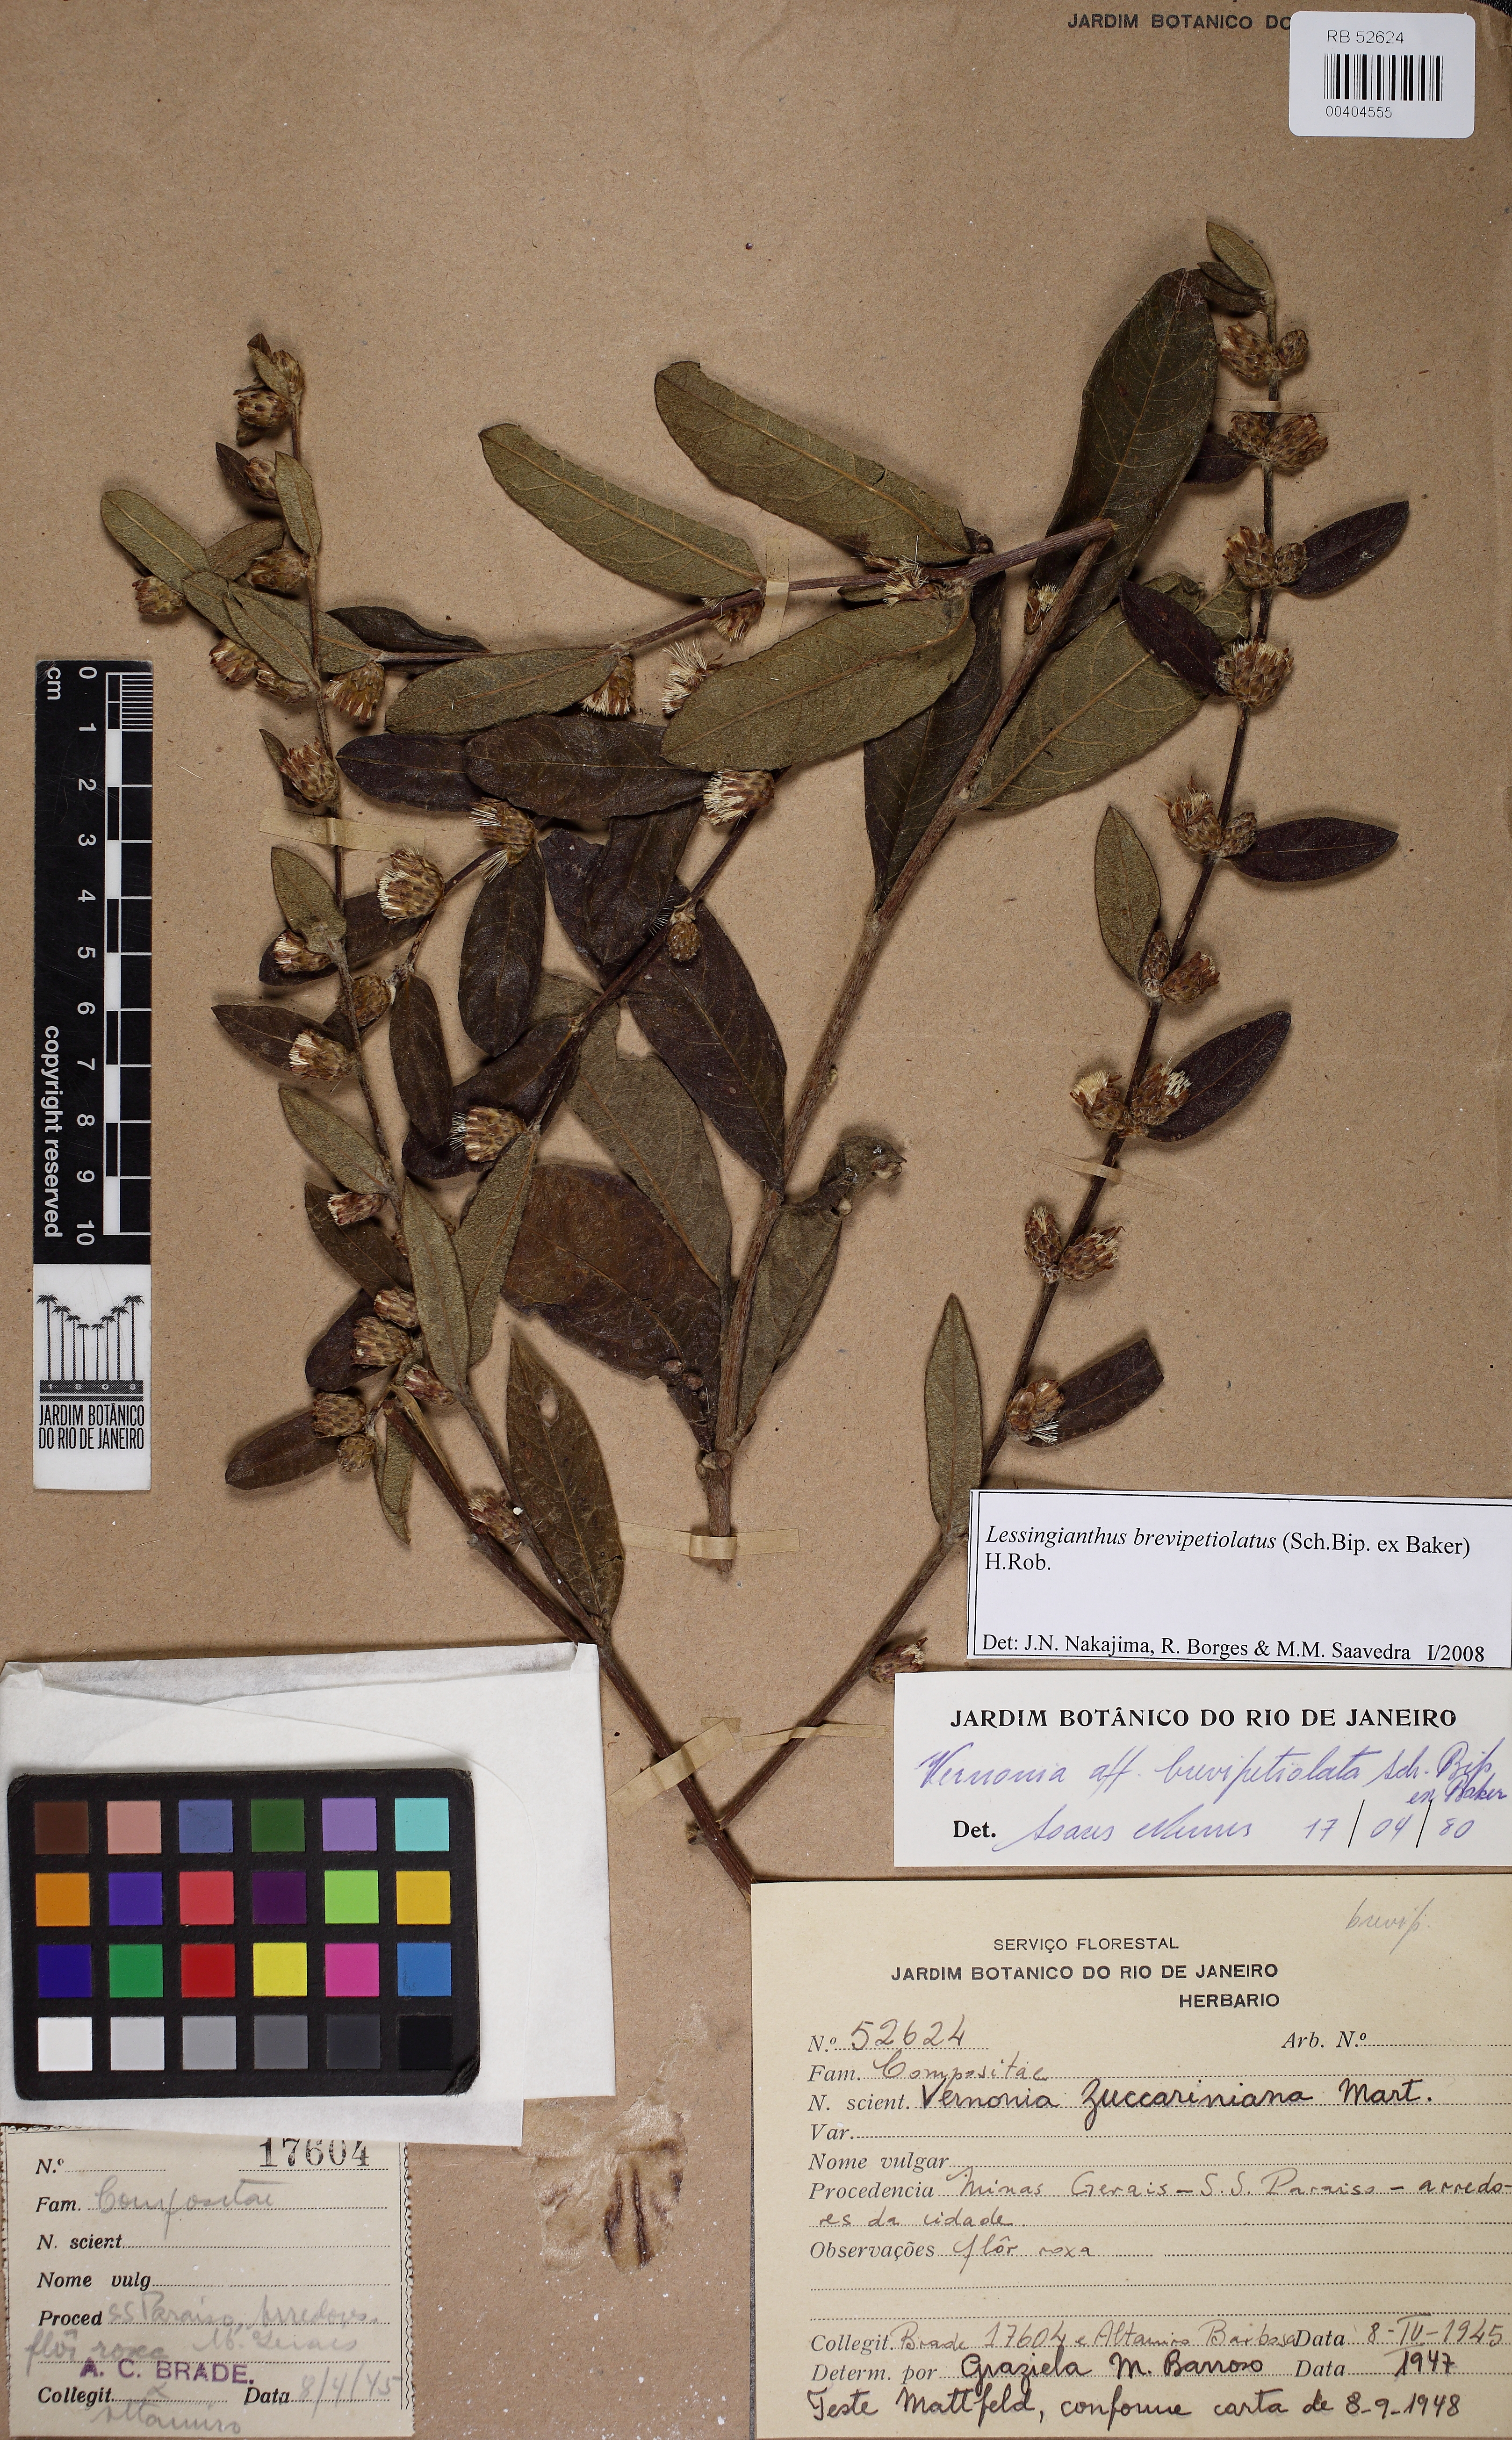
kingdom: Plantae
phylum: Tracheophyta
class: Magnoliopsida
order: Asterales
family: Asteraceae
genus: Lessingianthus
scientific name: Lessingianthus brevipetiolatus
